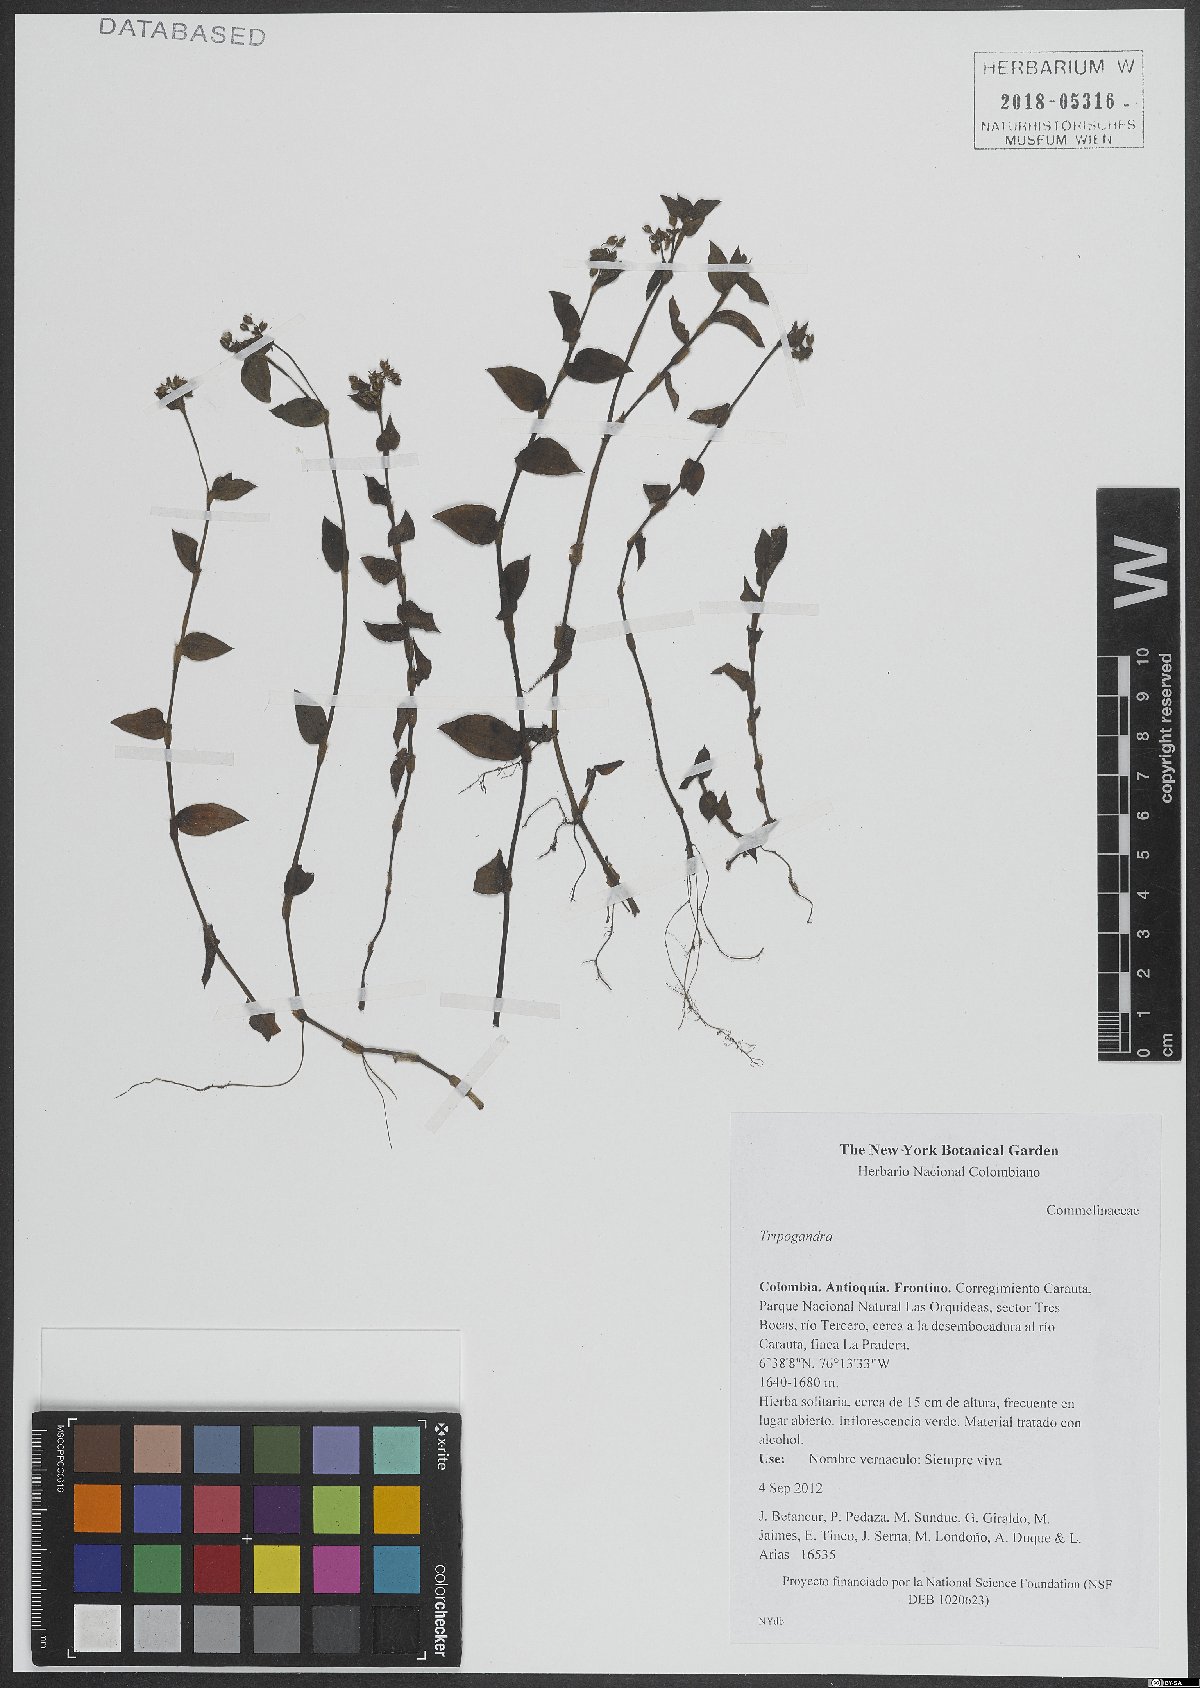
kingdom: Plantae
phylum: Tracheophyta
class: Liliopsida
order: Commelinales
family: Commelinaceae
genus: Callisia
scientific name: Callisia
